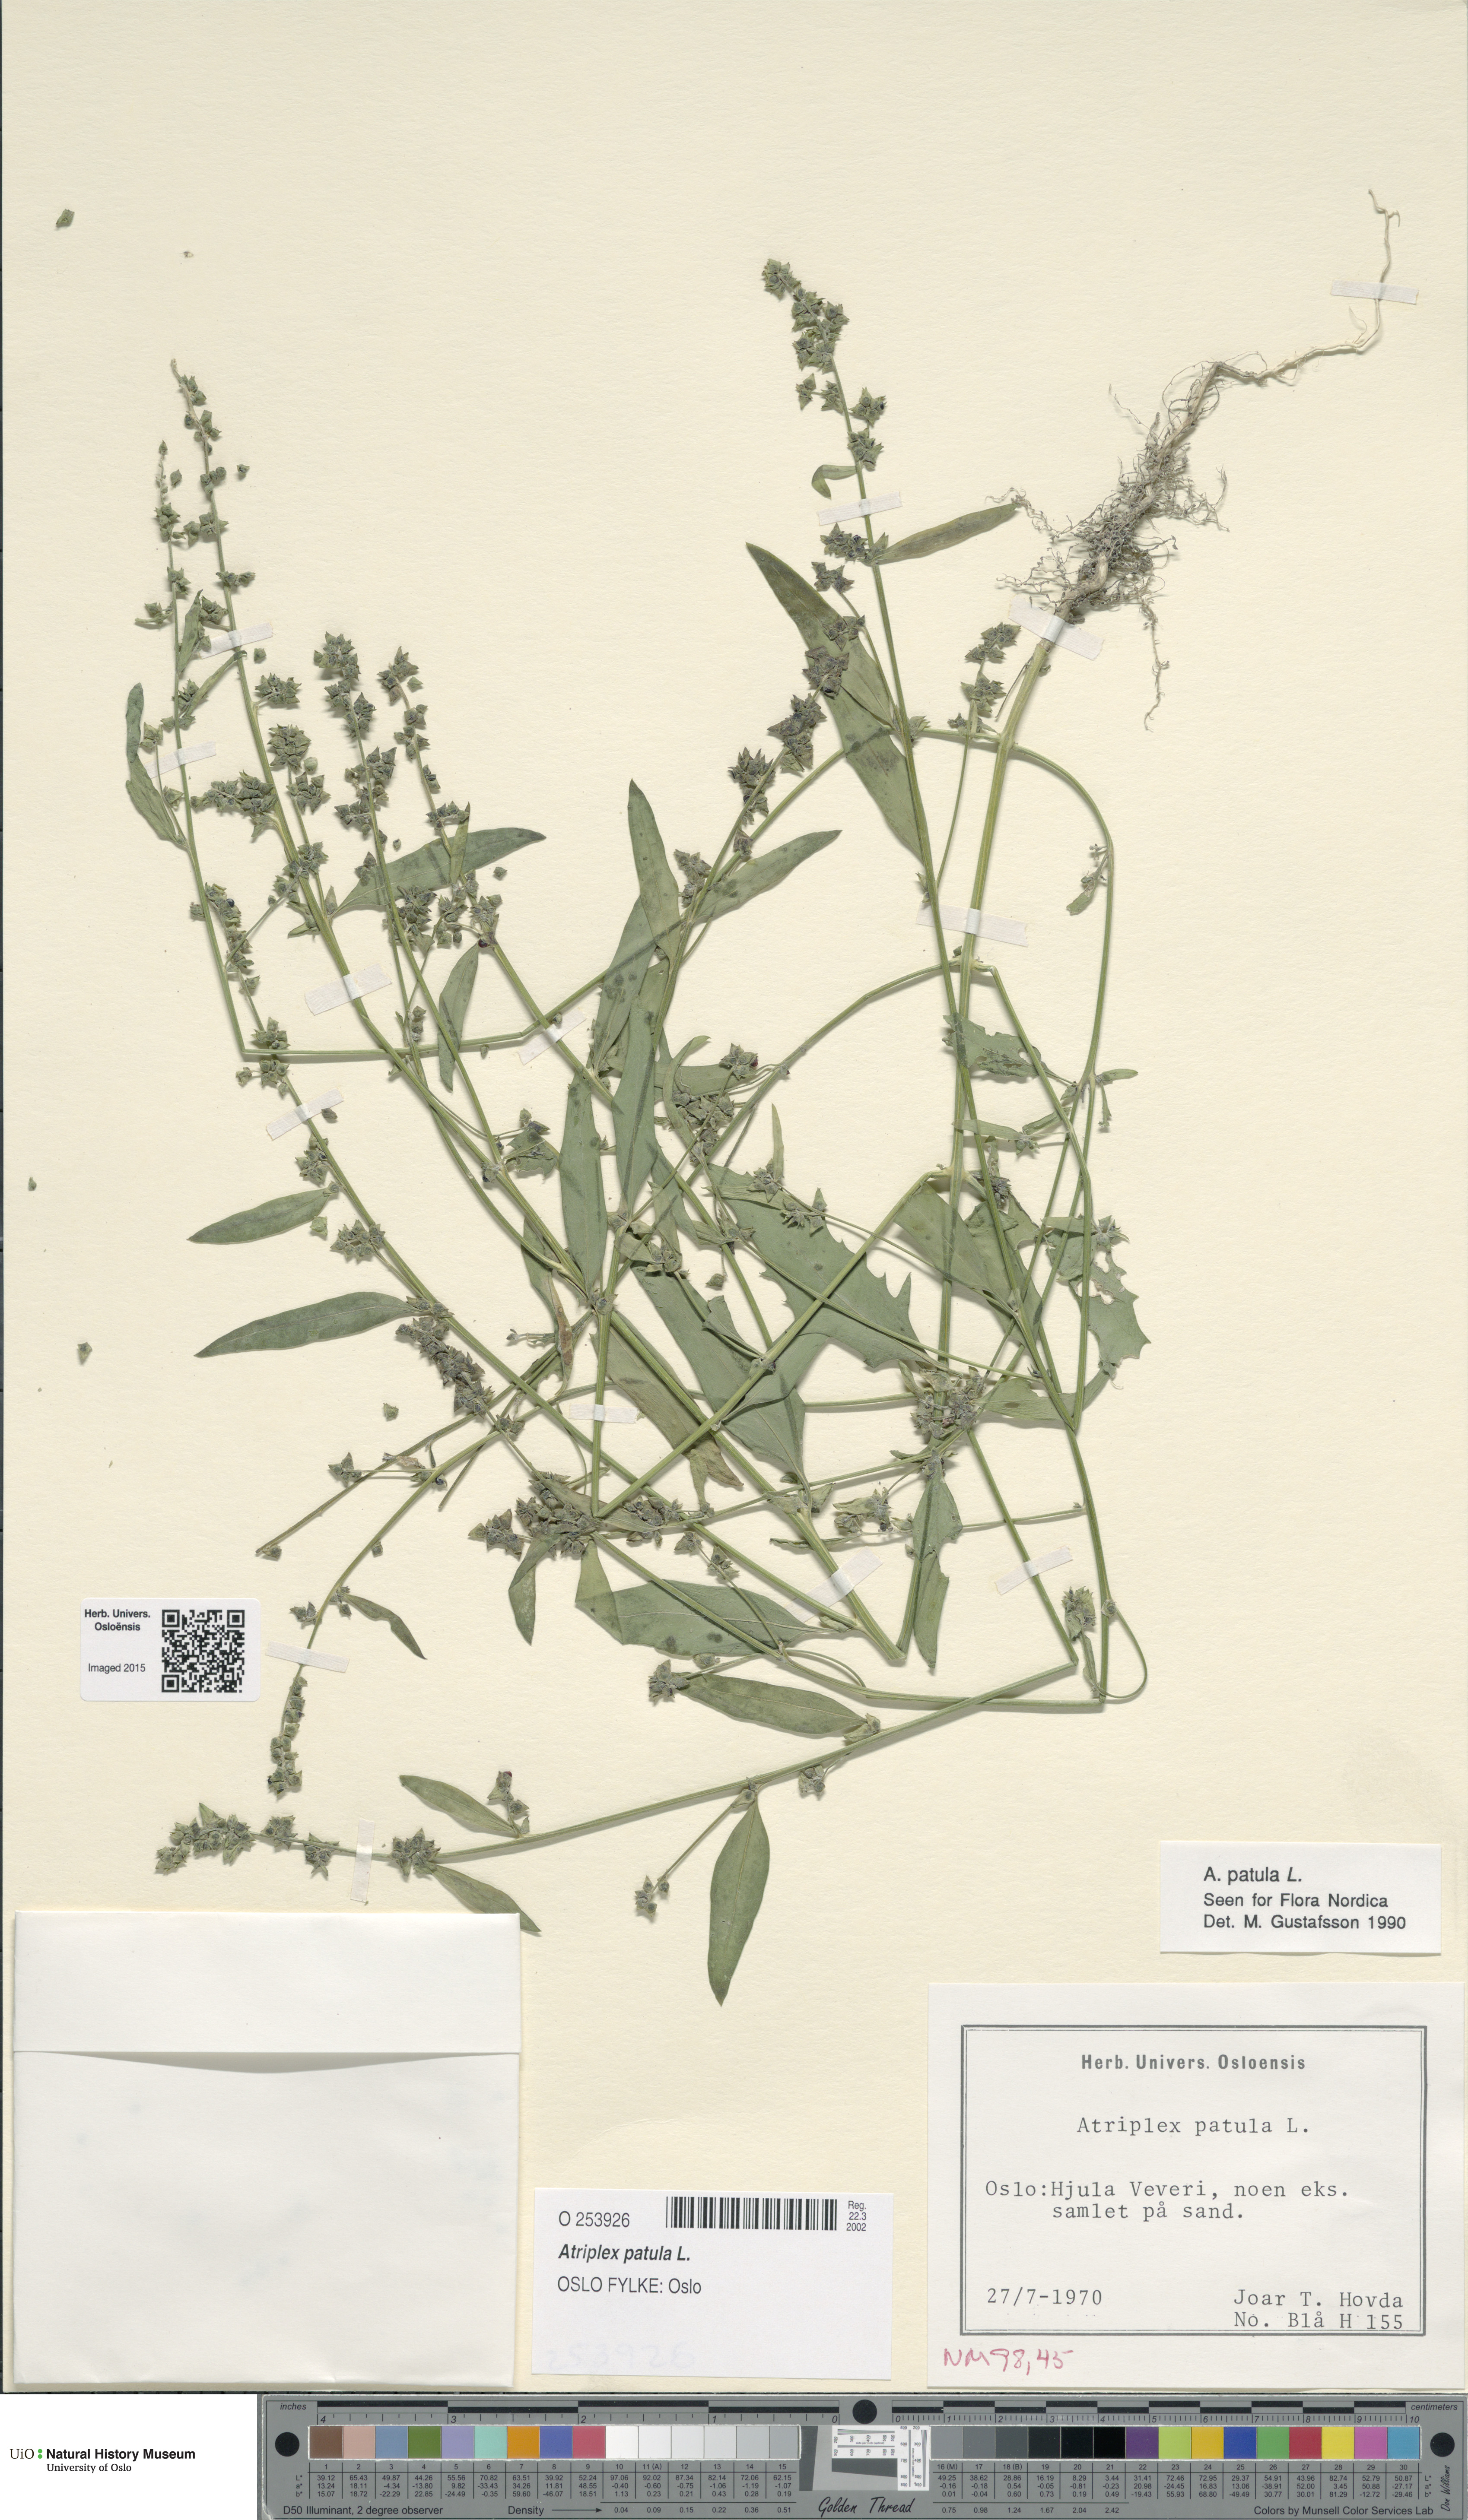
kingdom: Plantae
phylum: Tracheophyta
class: Magnoliopsida
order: Caryophyllales
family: Amaranthaceae
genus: Atriplex
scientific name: Atriplex patula
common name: Common orache
